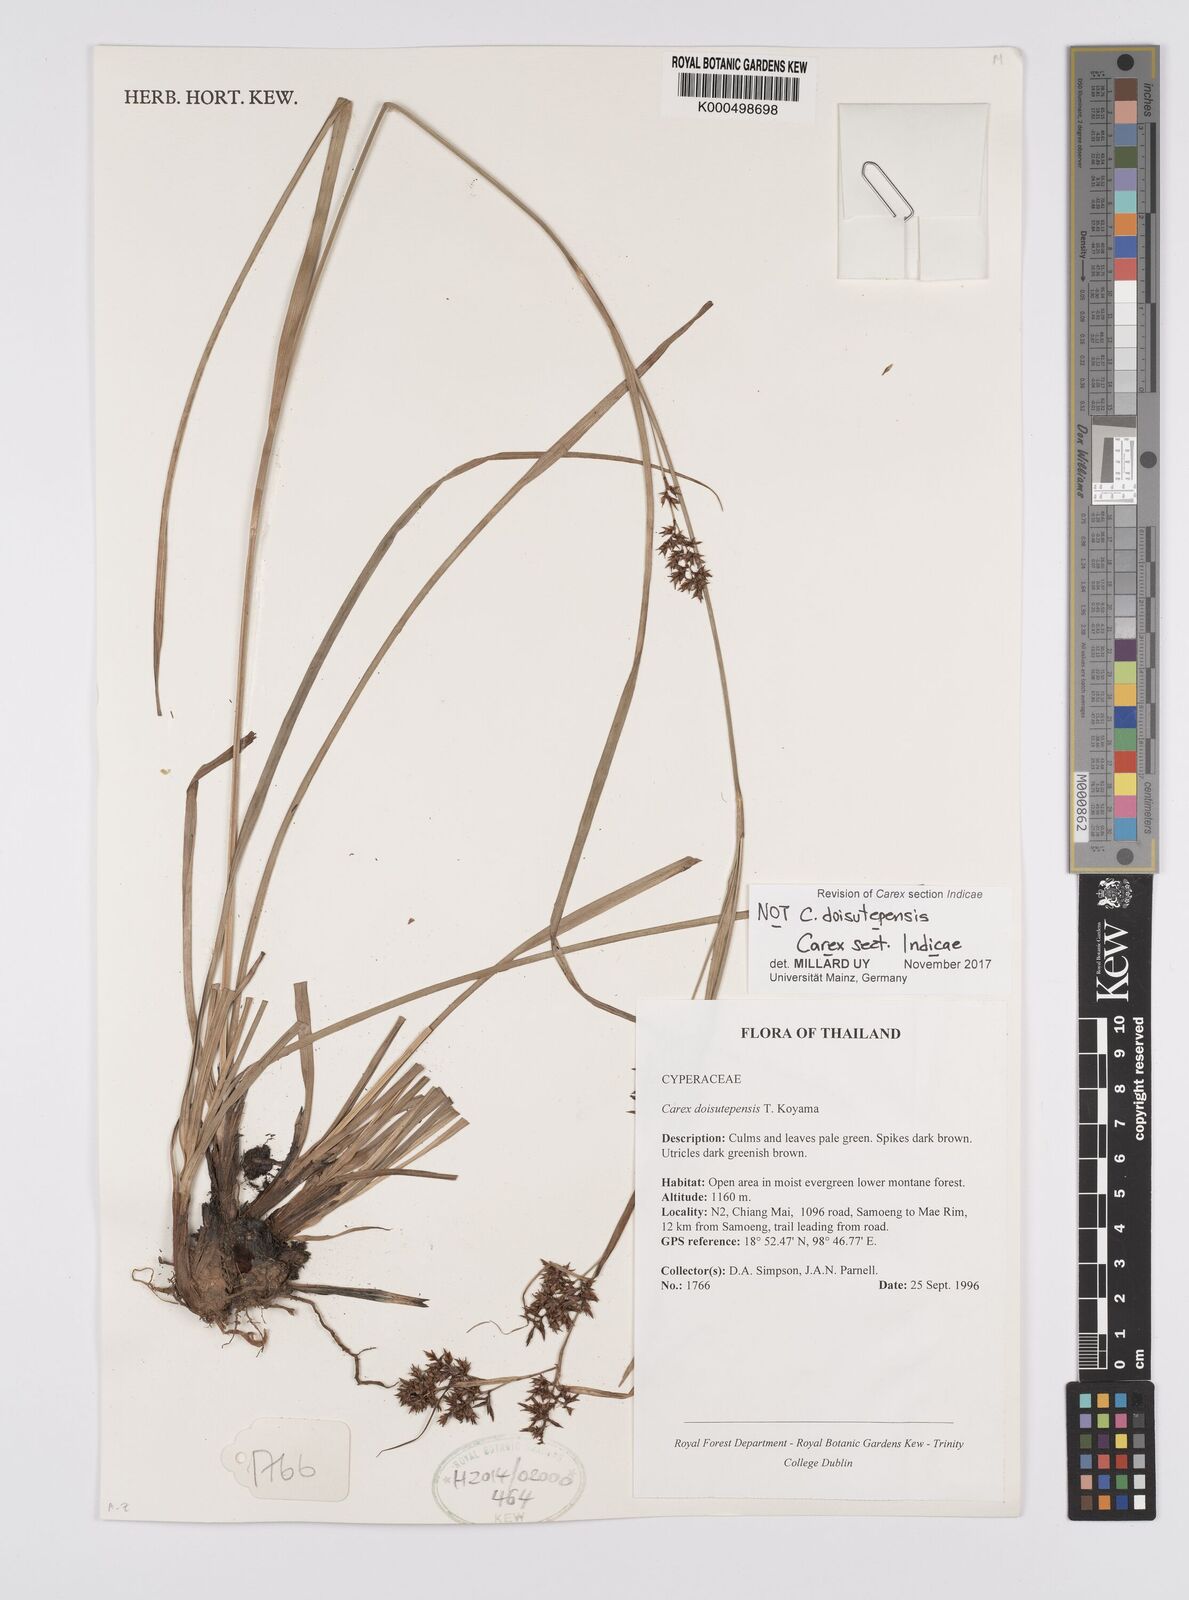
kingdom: Plantae
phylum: Tracheophyta
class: Liliopsida
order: Poales
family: Cyperaceae
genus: Carex
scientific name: Carex doisutepensis
